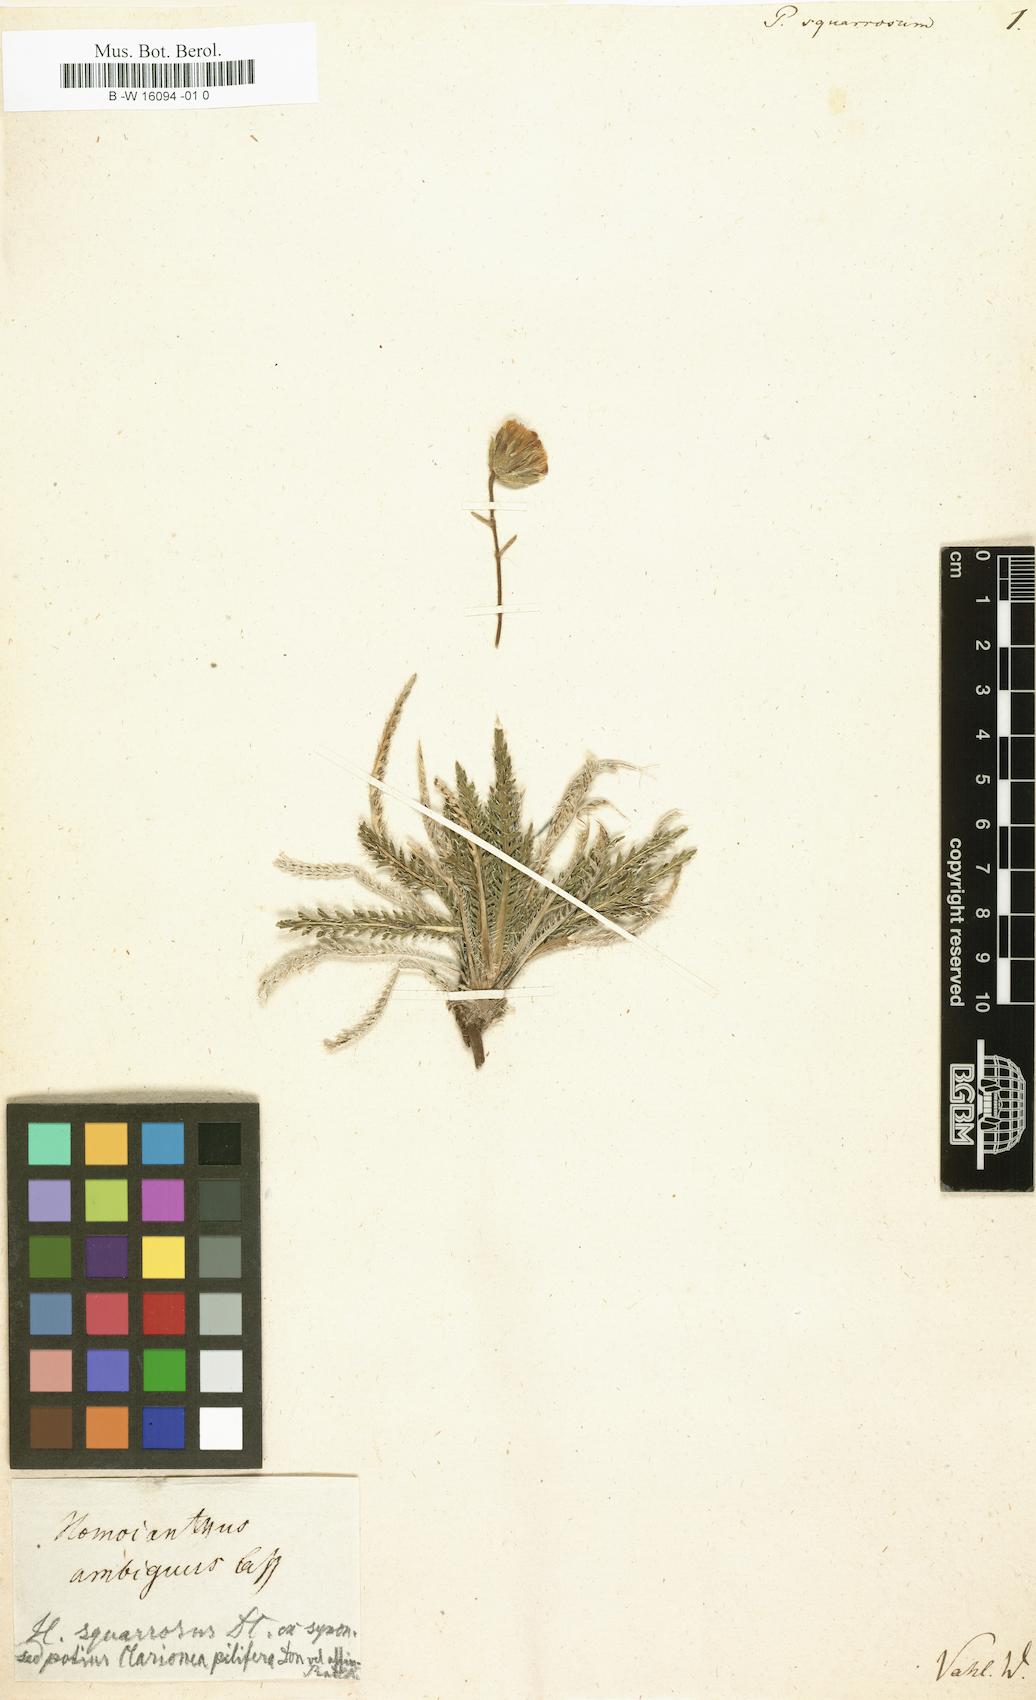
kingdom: Plantae
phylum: Tracheophyta
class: Magnoliopsida
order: Asterales
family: Asteraceae
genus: Perezia
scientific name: Perezia squarrosa
